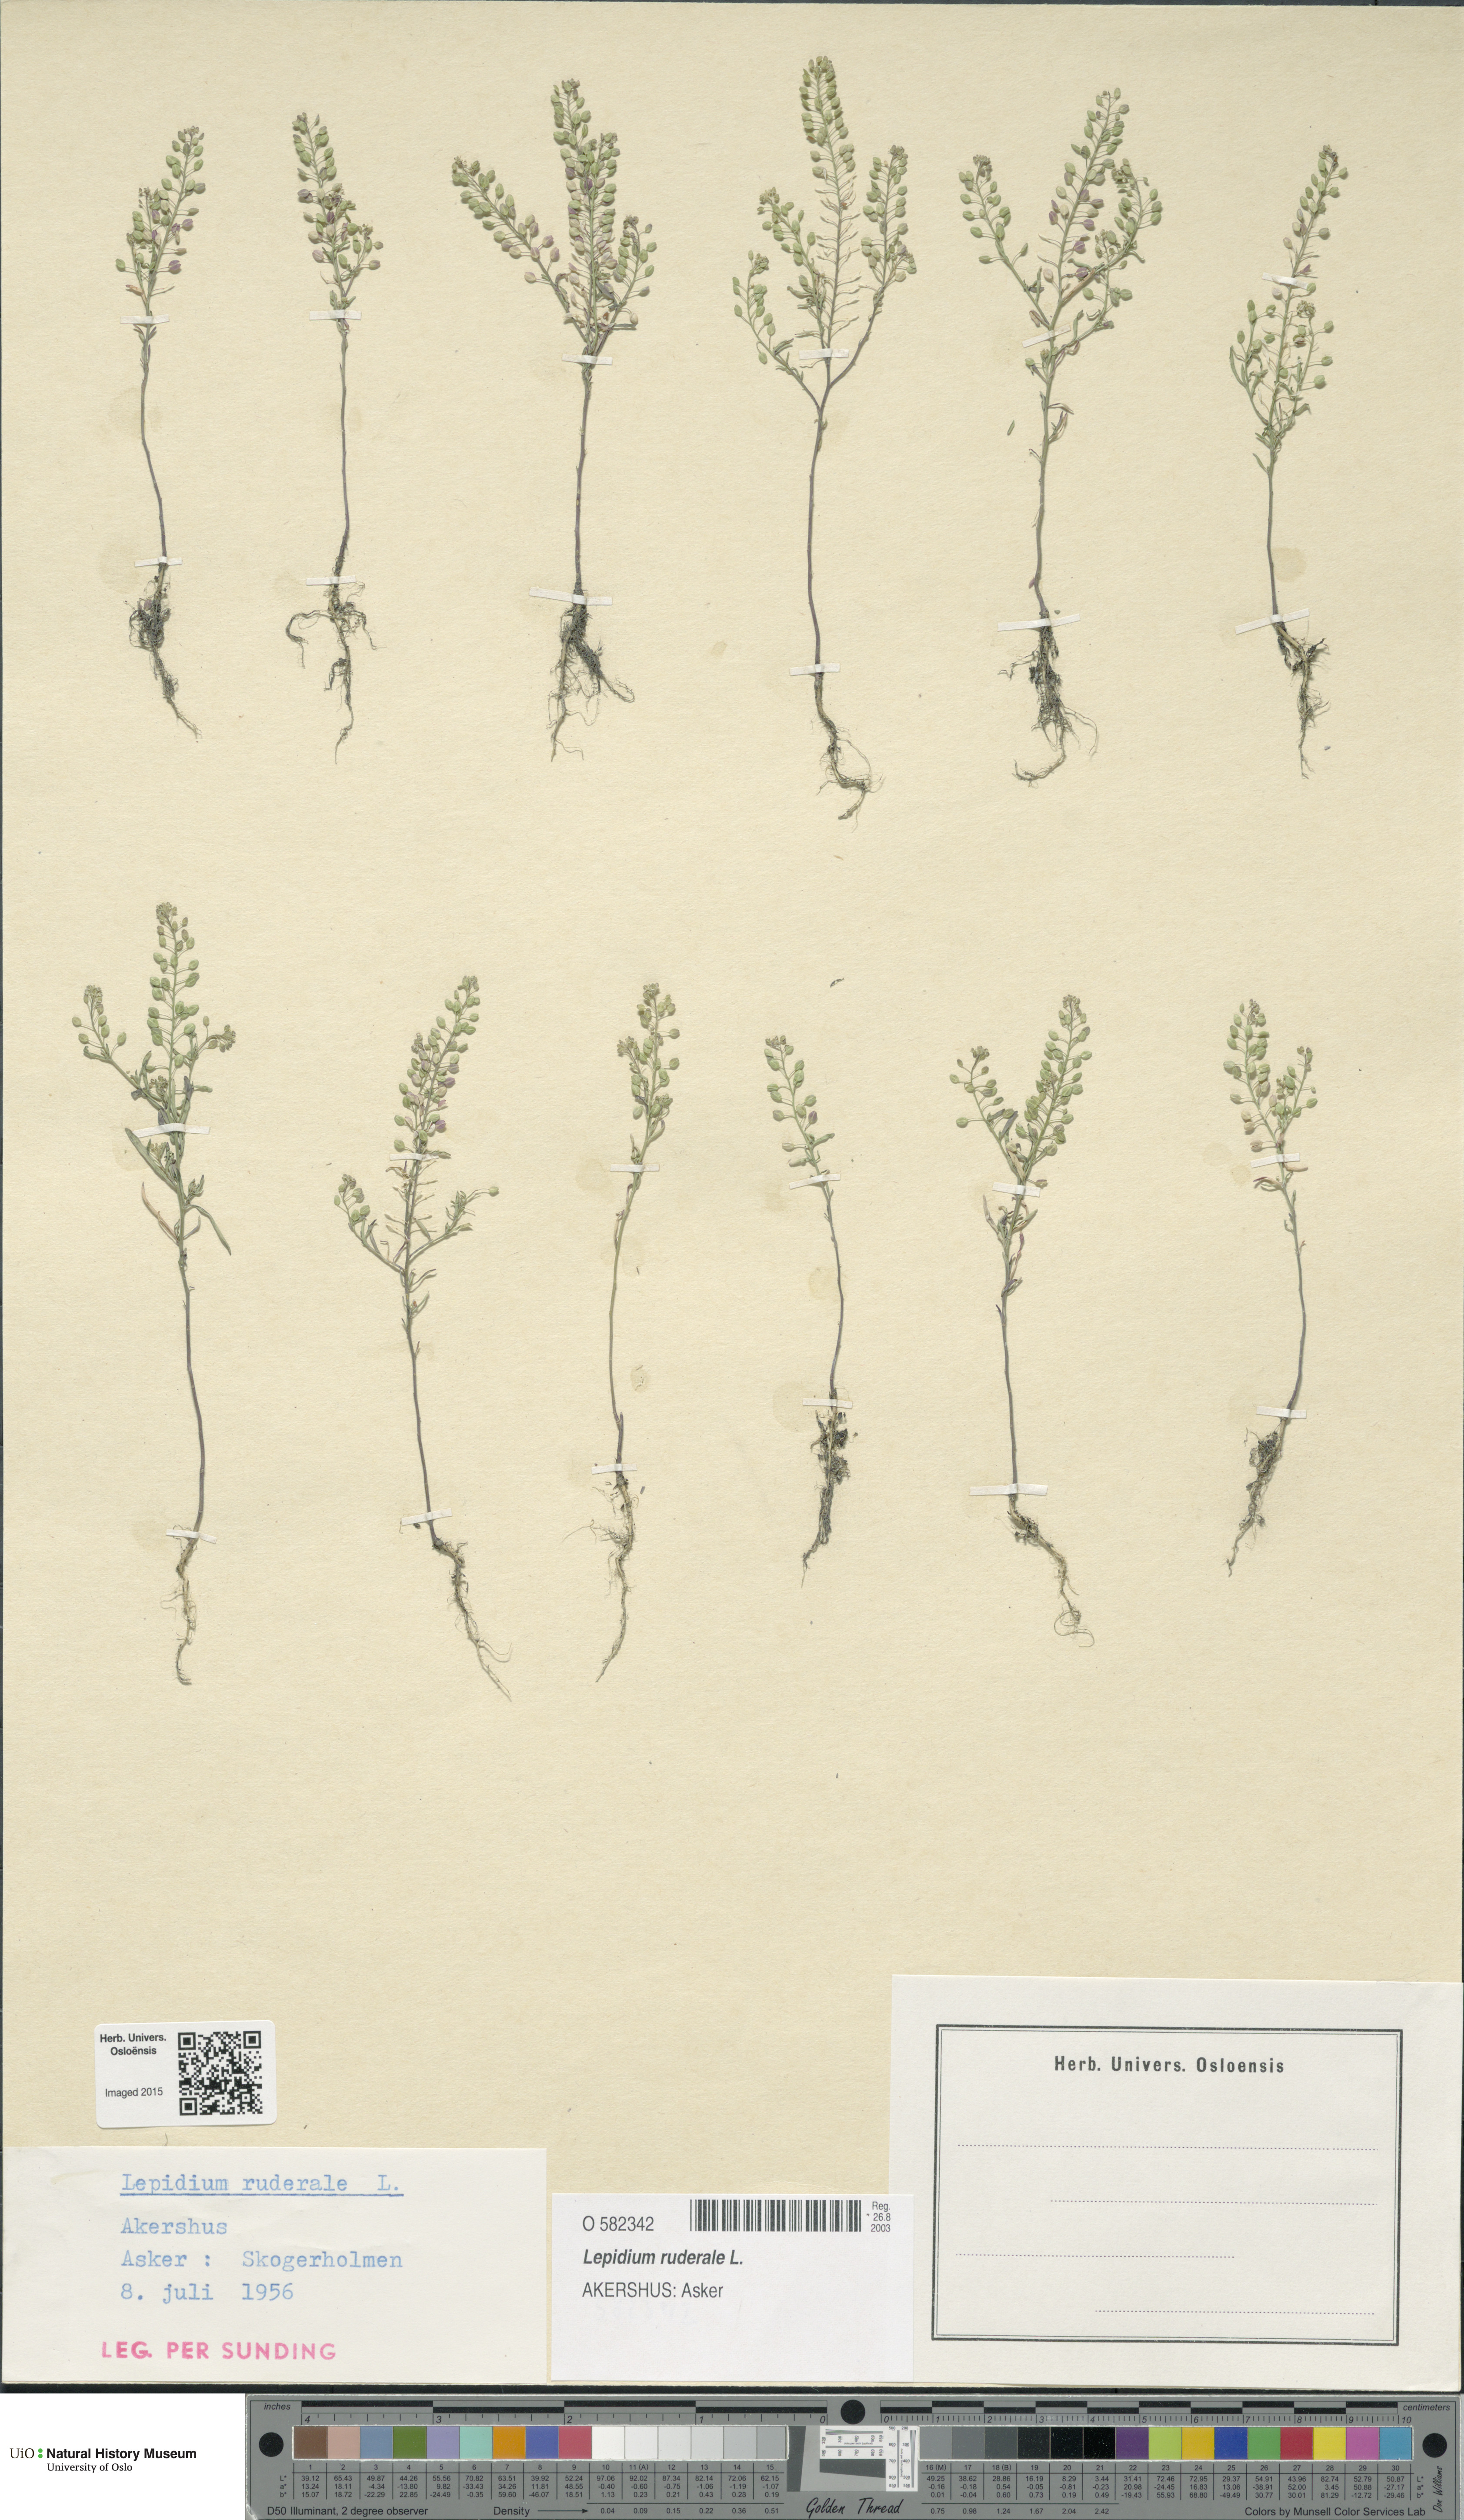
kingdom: Plantae
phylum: Tracheophyta
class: Magnoliopsida
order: Brassicales
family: Brassicaceae
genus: Lepidium
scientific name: Lepidium ruderale
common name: Narrow-leaved pepperwort
